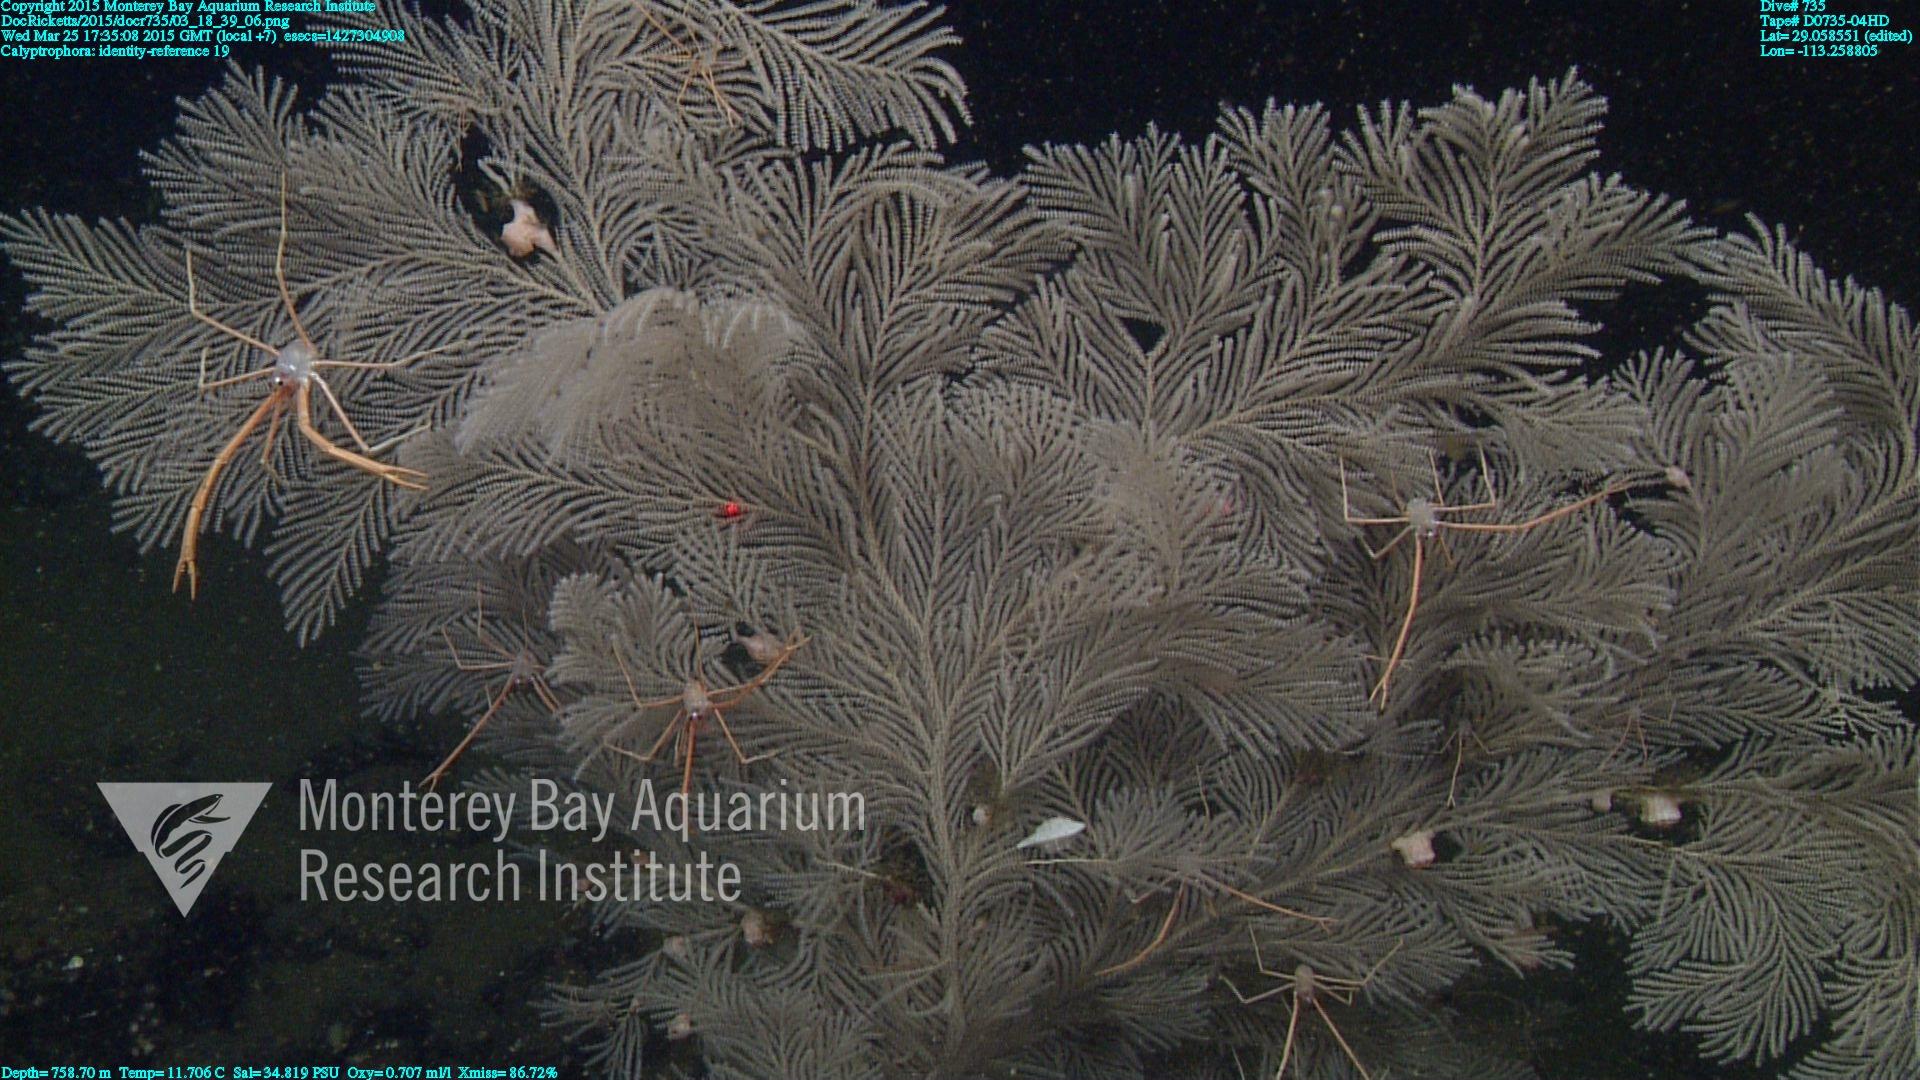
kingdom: Animalia
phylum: Cnidaria
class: Anthozoa
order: Scleralcyonacea
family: Primnoidae
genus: Calyptrophora
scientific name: Calyptrophora
